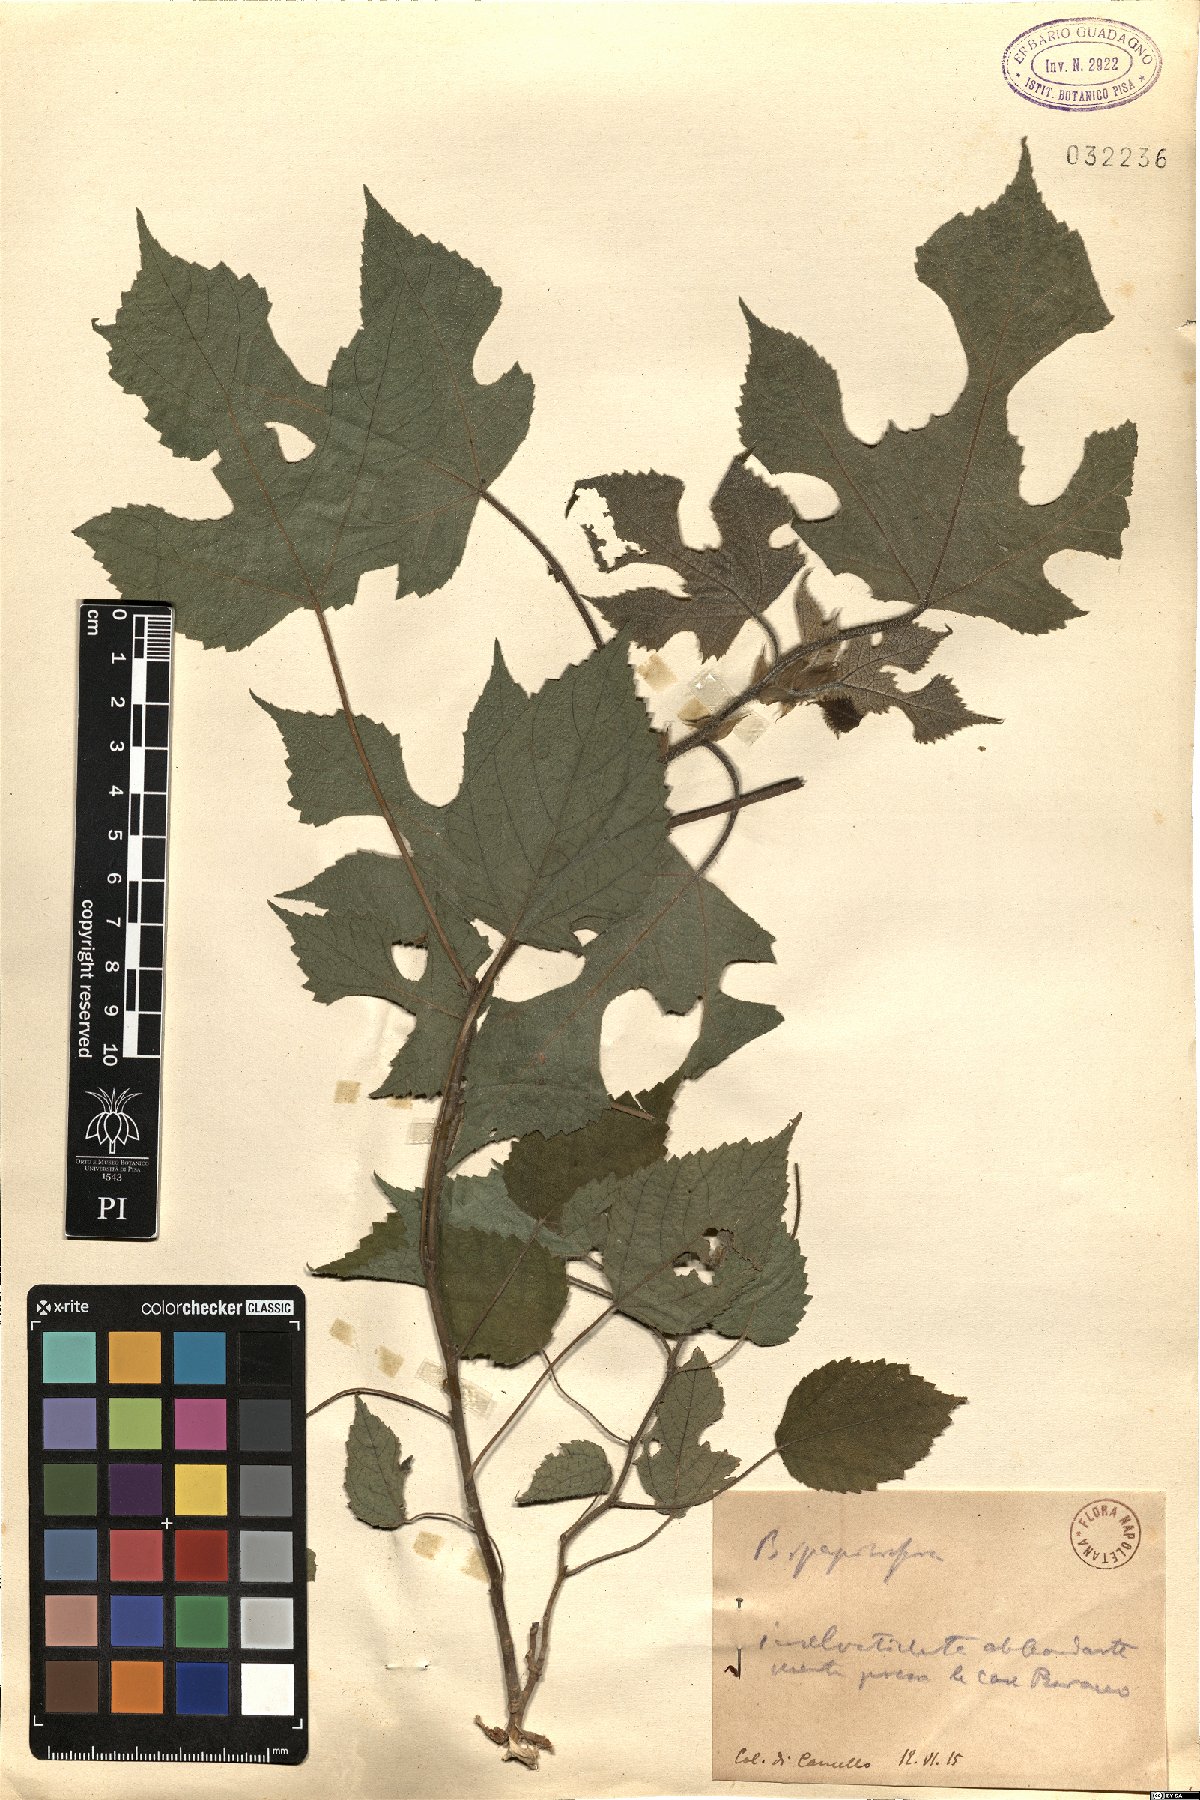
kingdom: Plantae
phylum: Tracheophyta
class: Magnoliopsida
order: Rosales
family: Moraceae
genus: Broussonetia
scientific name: Broussonetia papyrifera
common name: Paper mulberry
